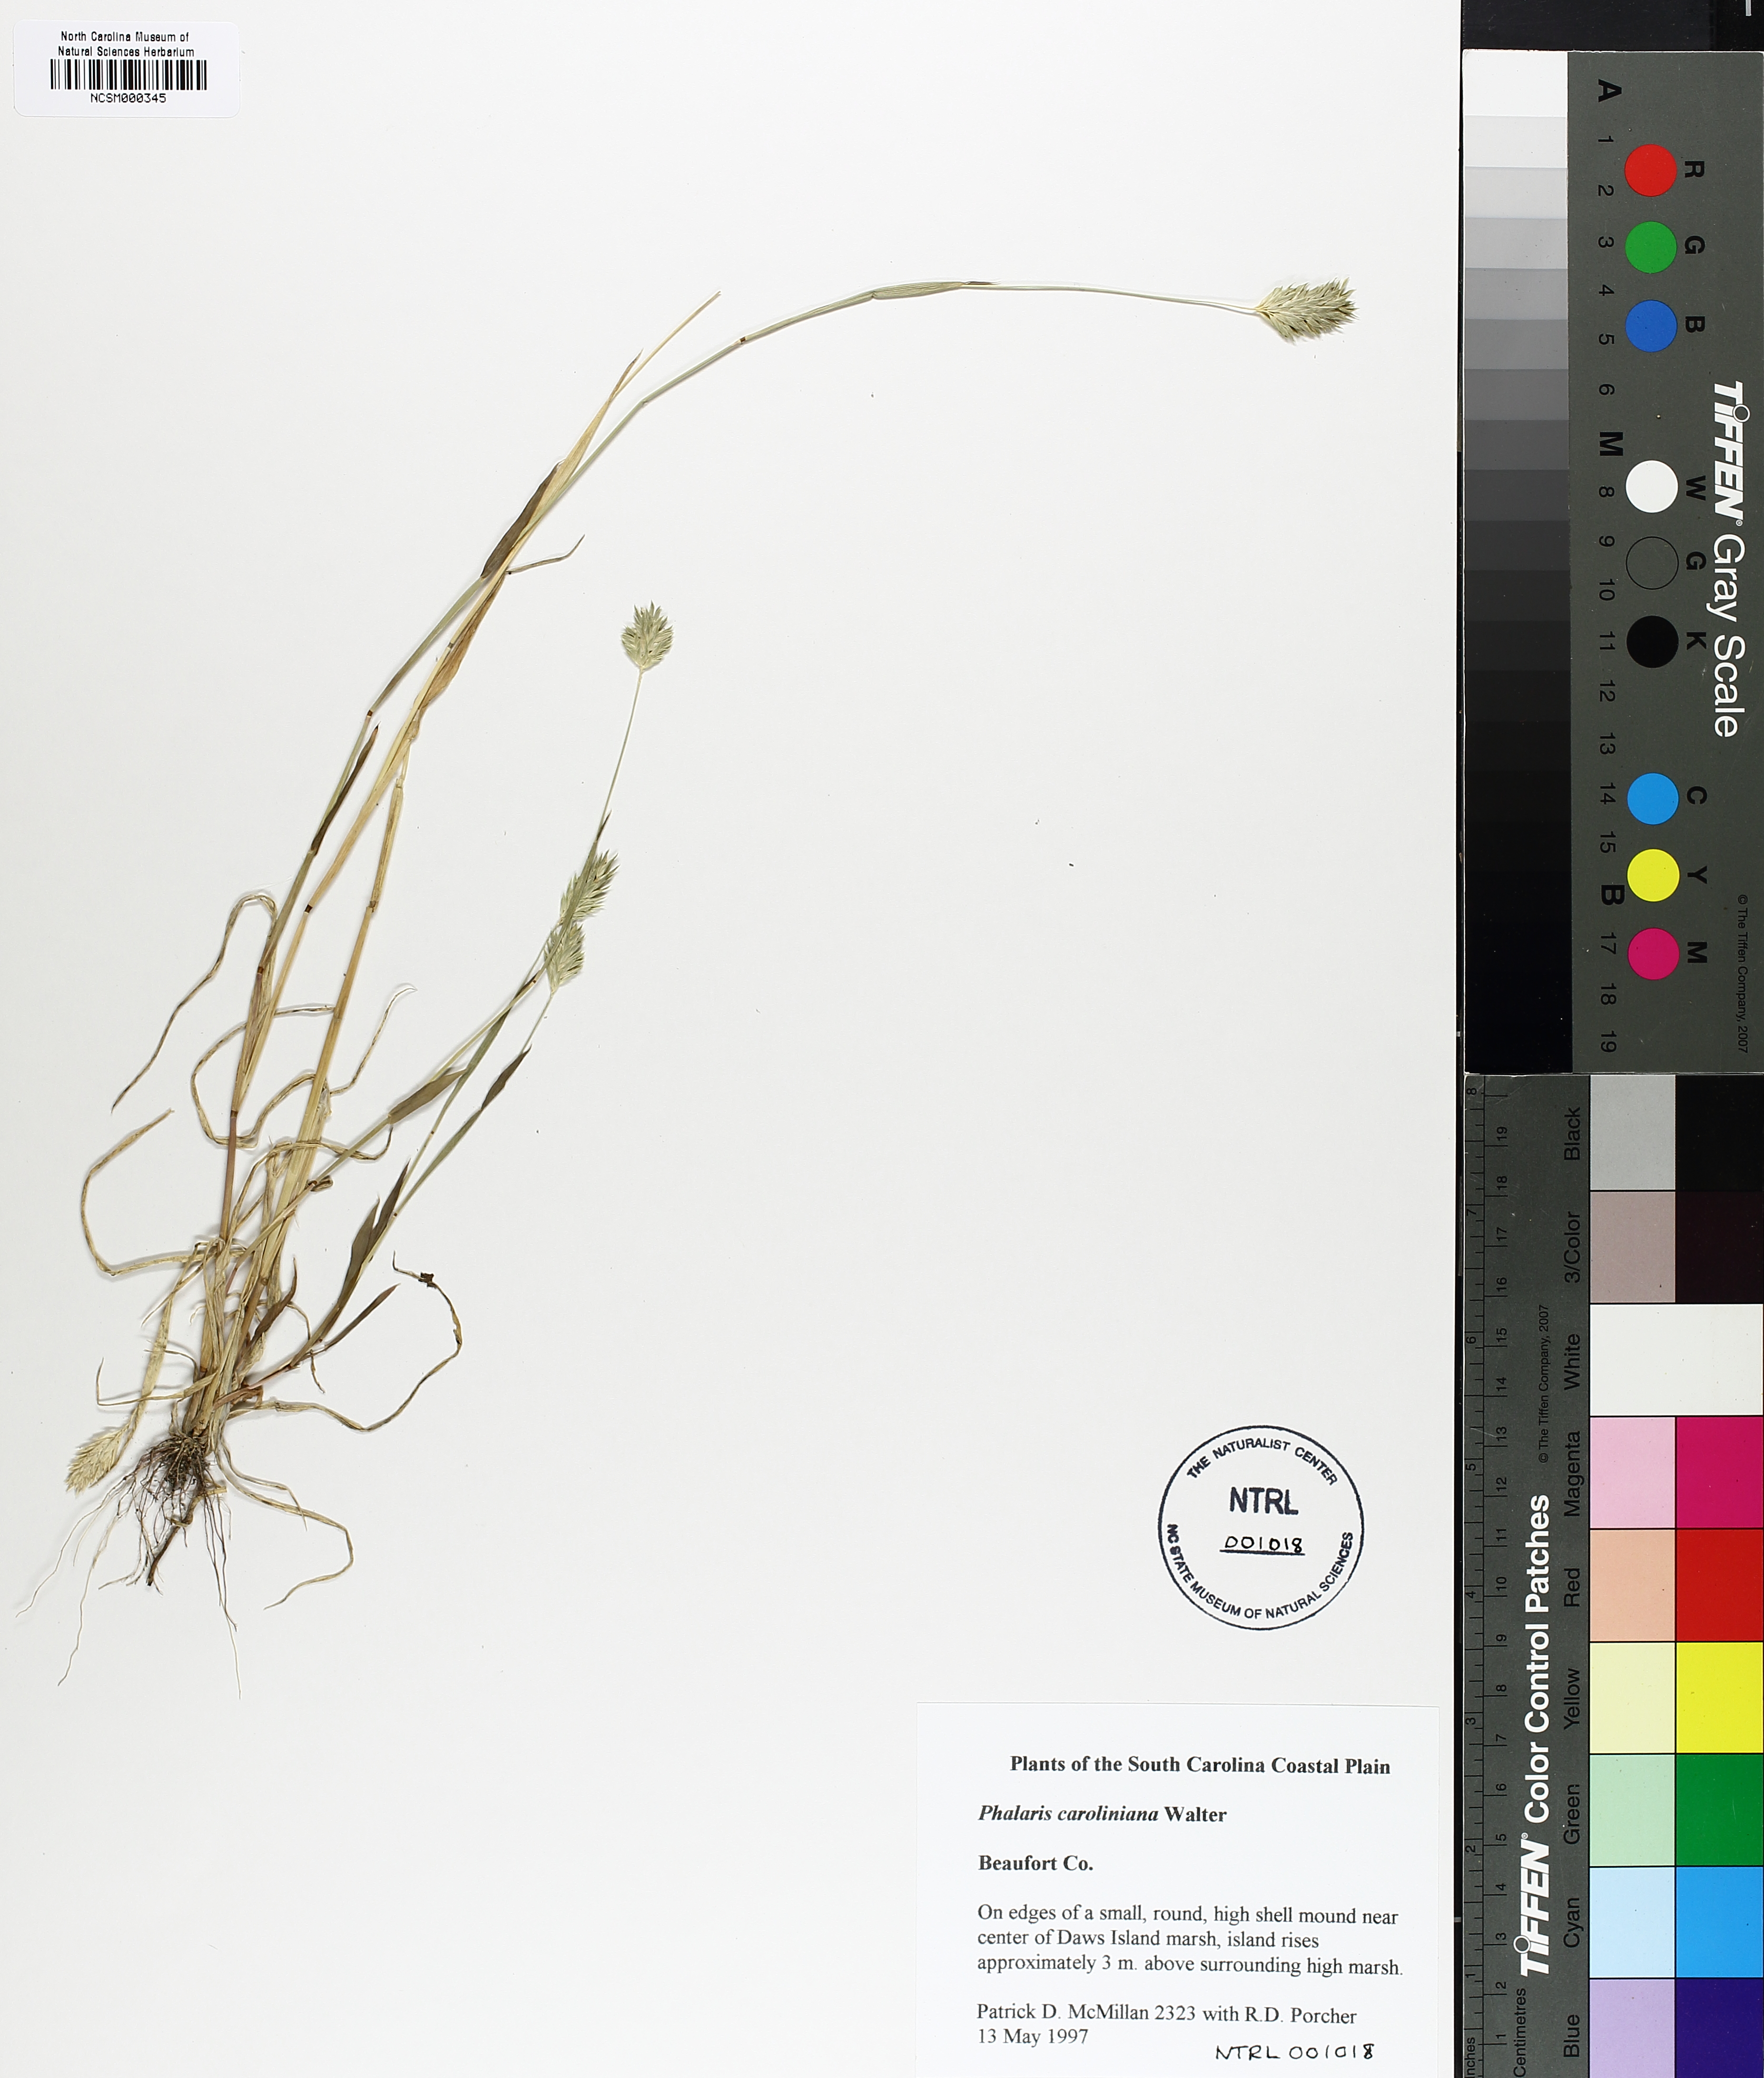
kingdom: Plantae
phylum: Tracheophyta
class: Liliopsida
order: Poales
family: Poaceae
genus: Phalaris
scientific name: Phalaris caroliniana
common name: May grass
